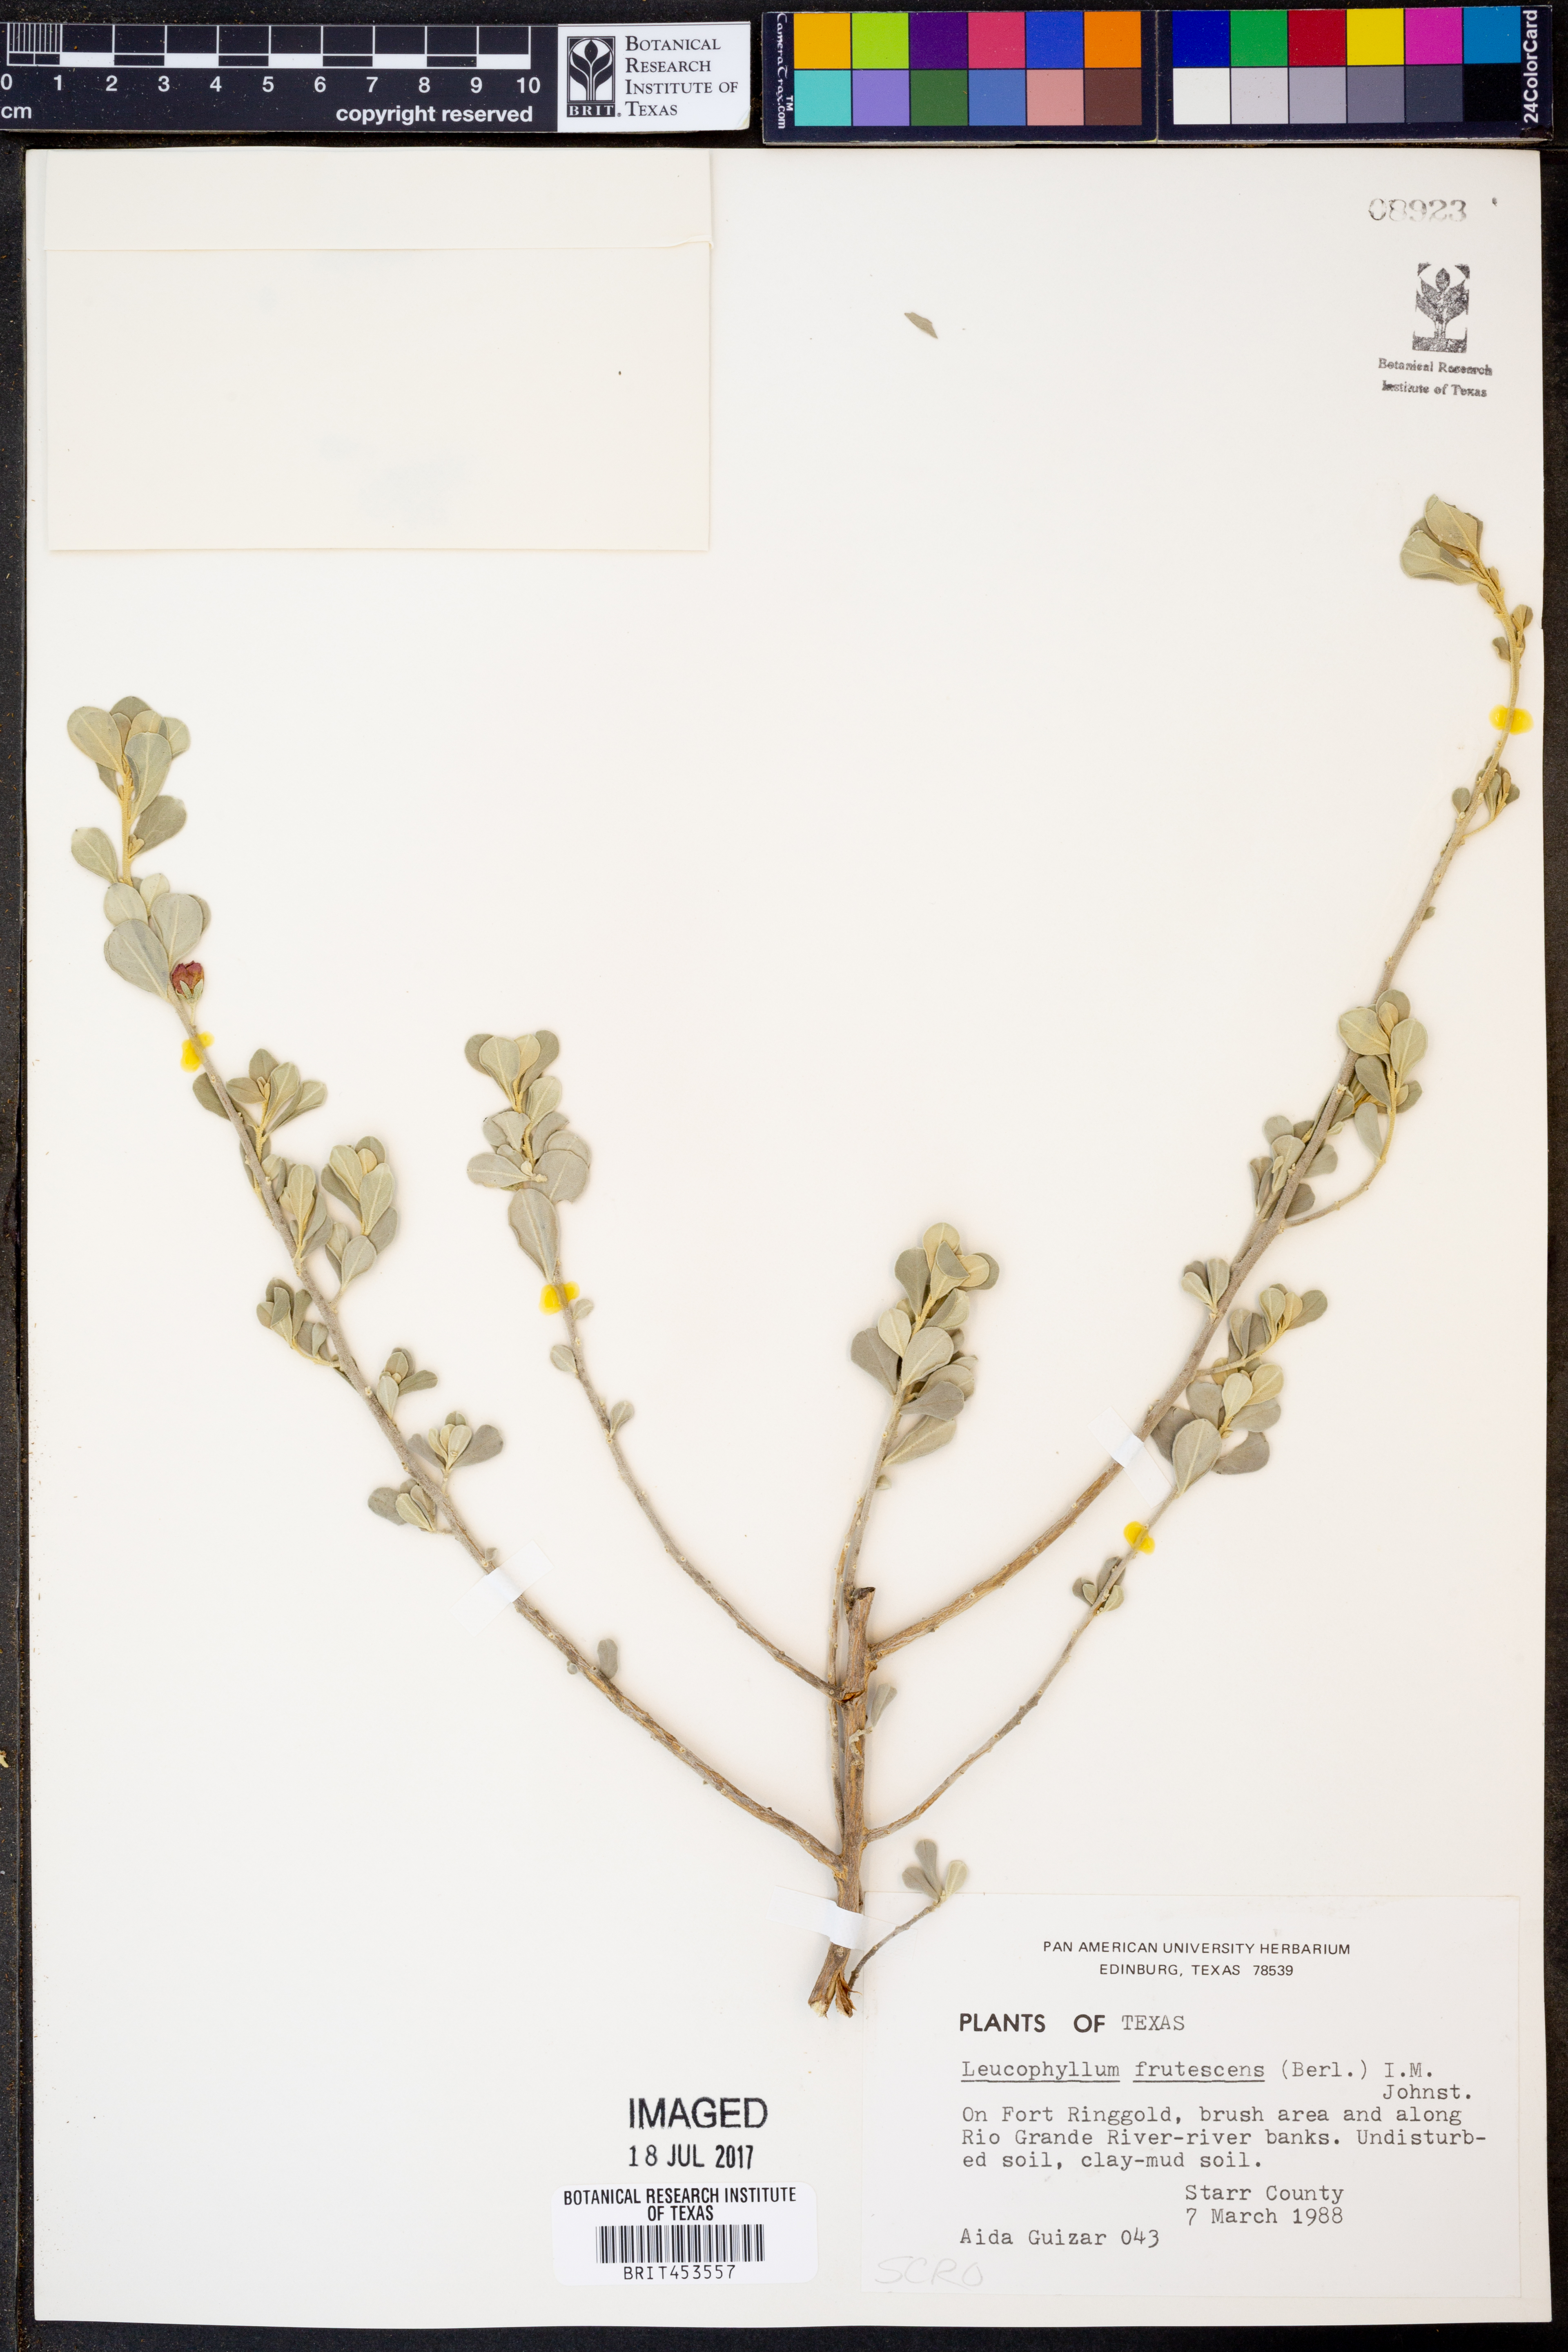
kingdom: Plantae
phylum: Tracheophyta
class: Magnoliopsida
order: Lamiales
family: Scrophulariaceae
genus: Leucophyllum
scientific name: Leucophyllum frutescens
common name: Texas silverleaf
